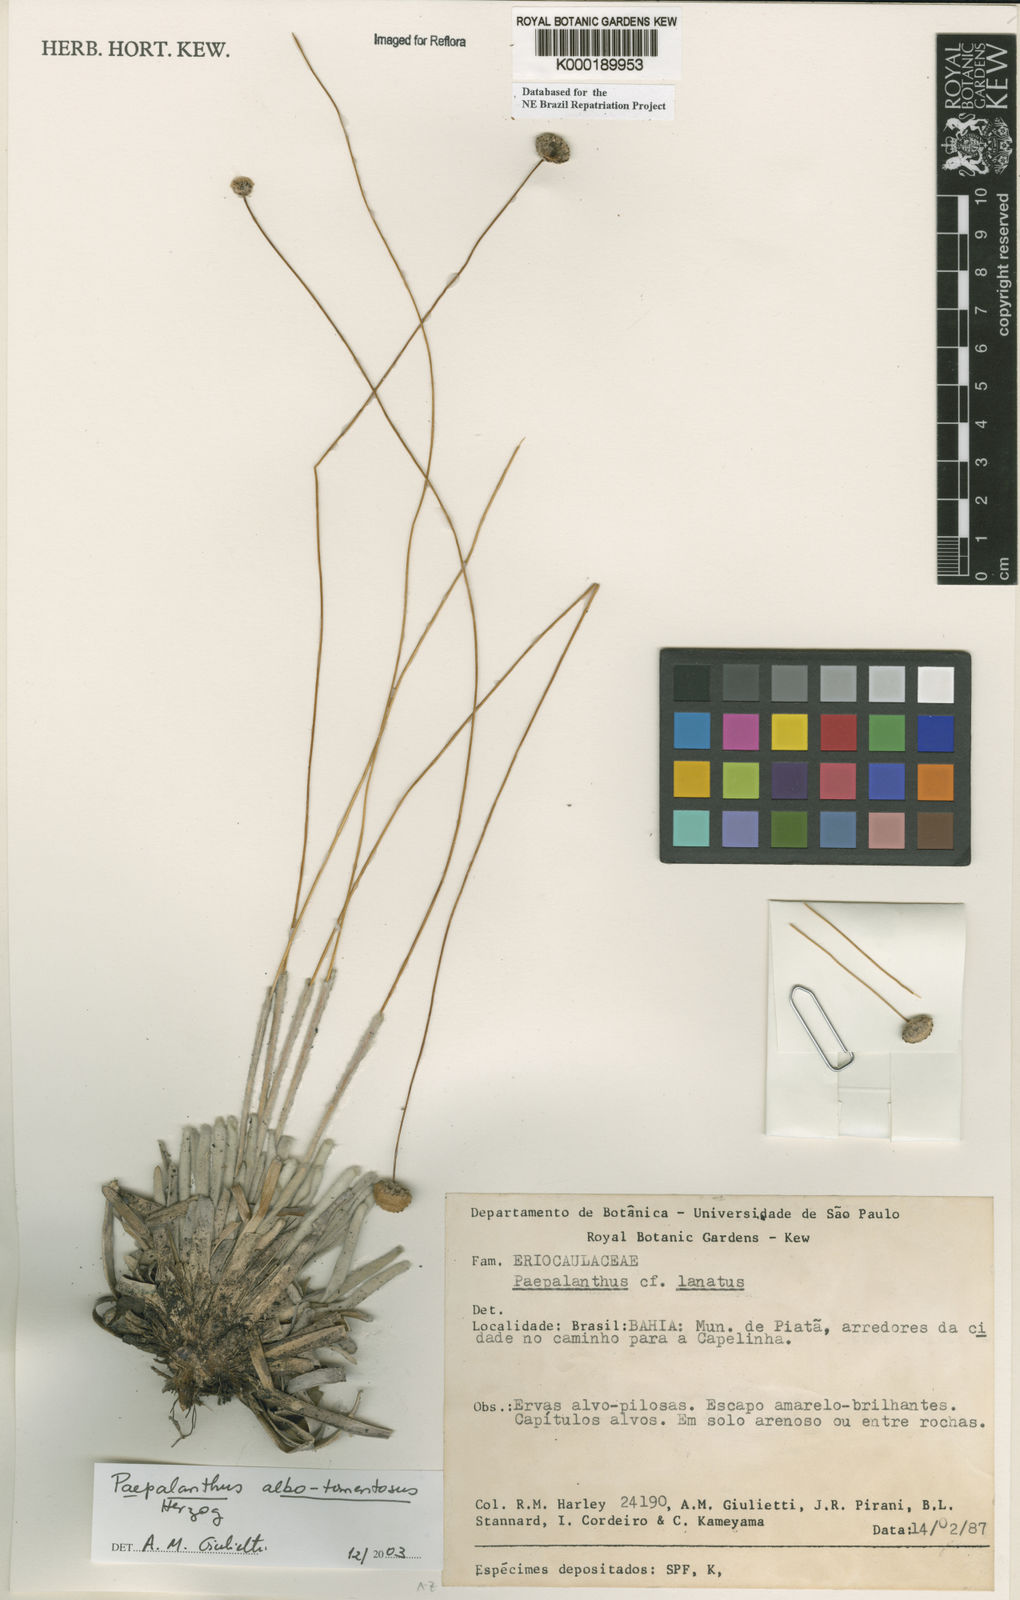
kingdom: Plantae
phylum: Tracheophyta
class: Liliopsida
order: Poales
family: Eriocaulaceae
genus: Paepalanthus
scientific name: Paepalanthus albotomentosus
